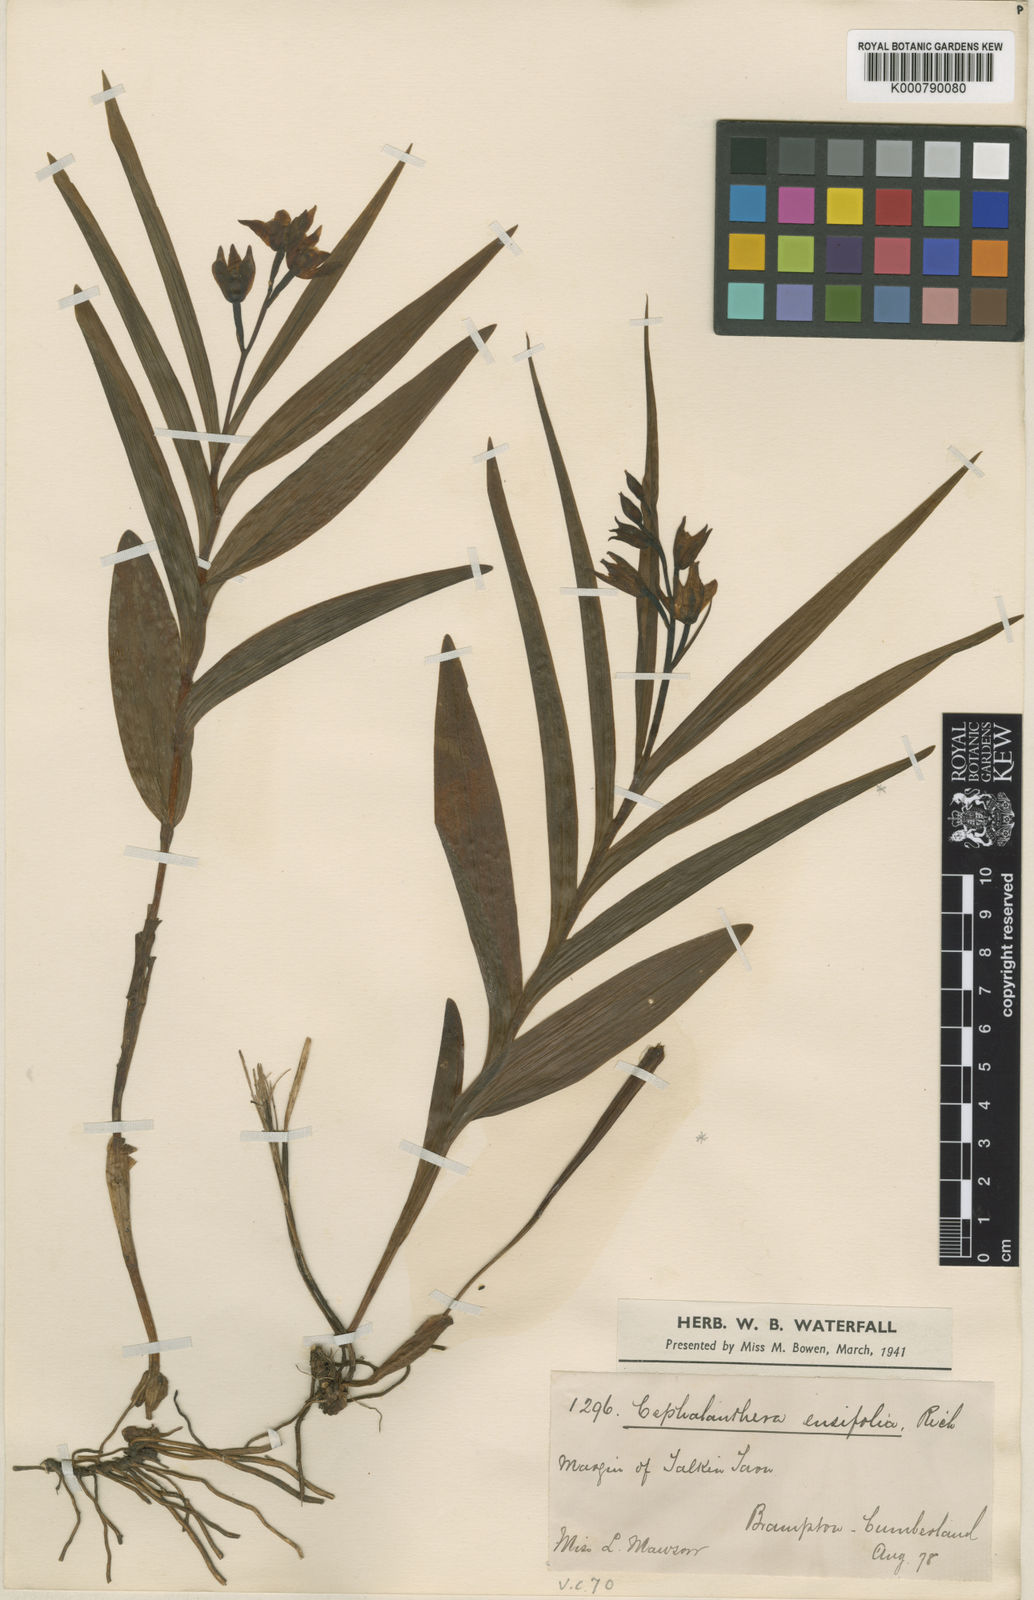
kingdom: Plantae
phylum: Tracheophyta
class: Liliopsida
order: Asparagales
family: Orchidaceae
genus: Cephalanthera
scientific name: Cephalanthera longifolia
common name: Narrow-leaved helleborine
